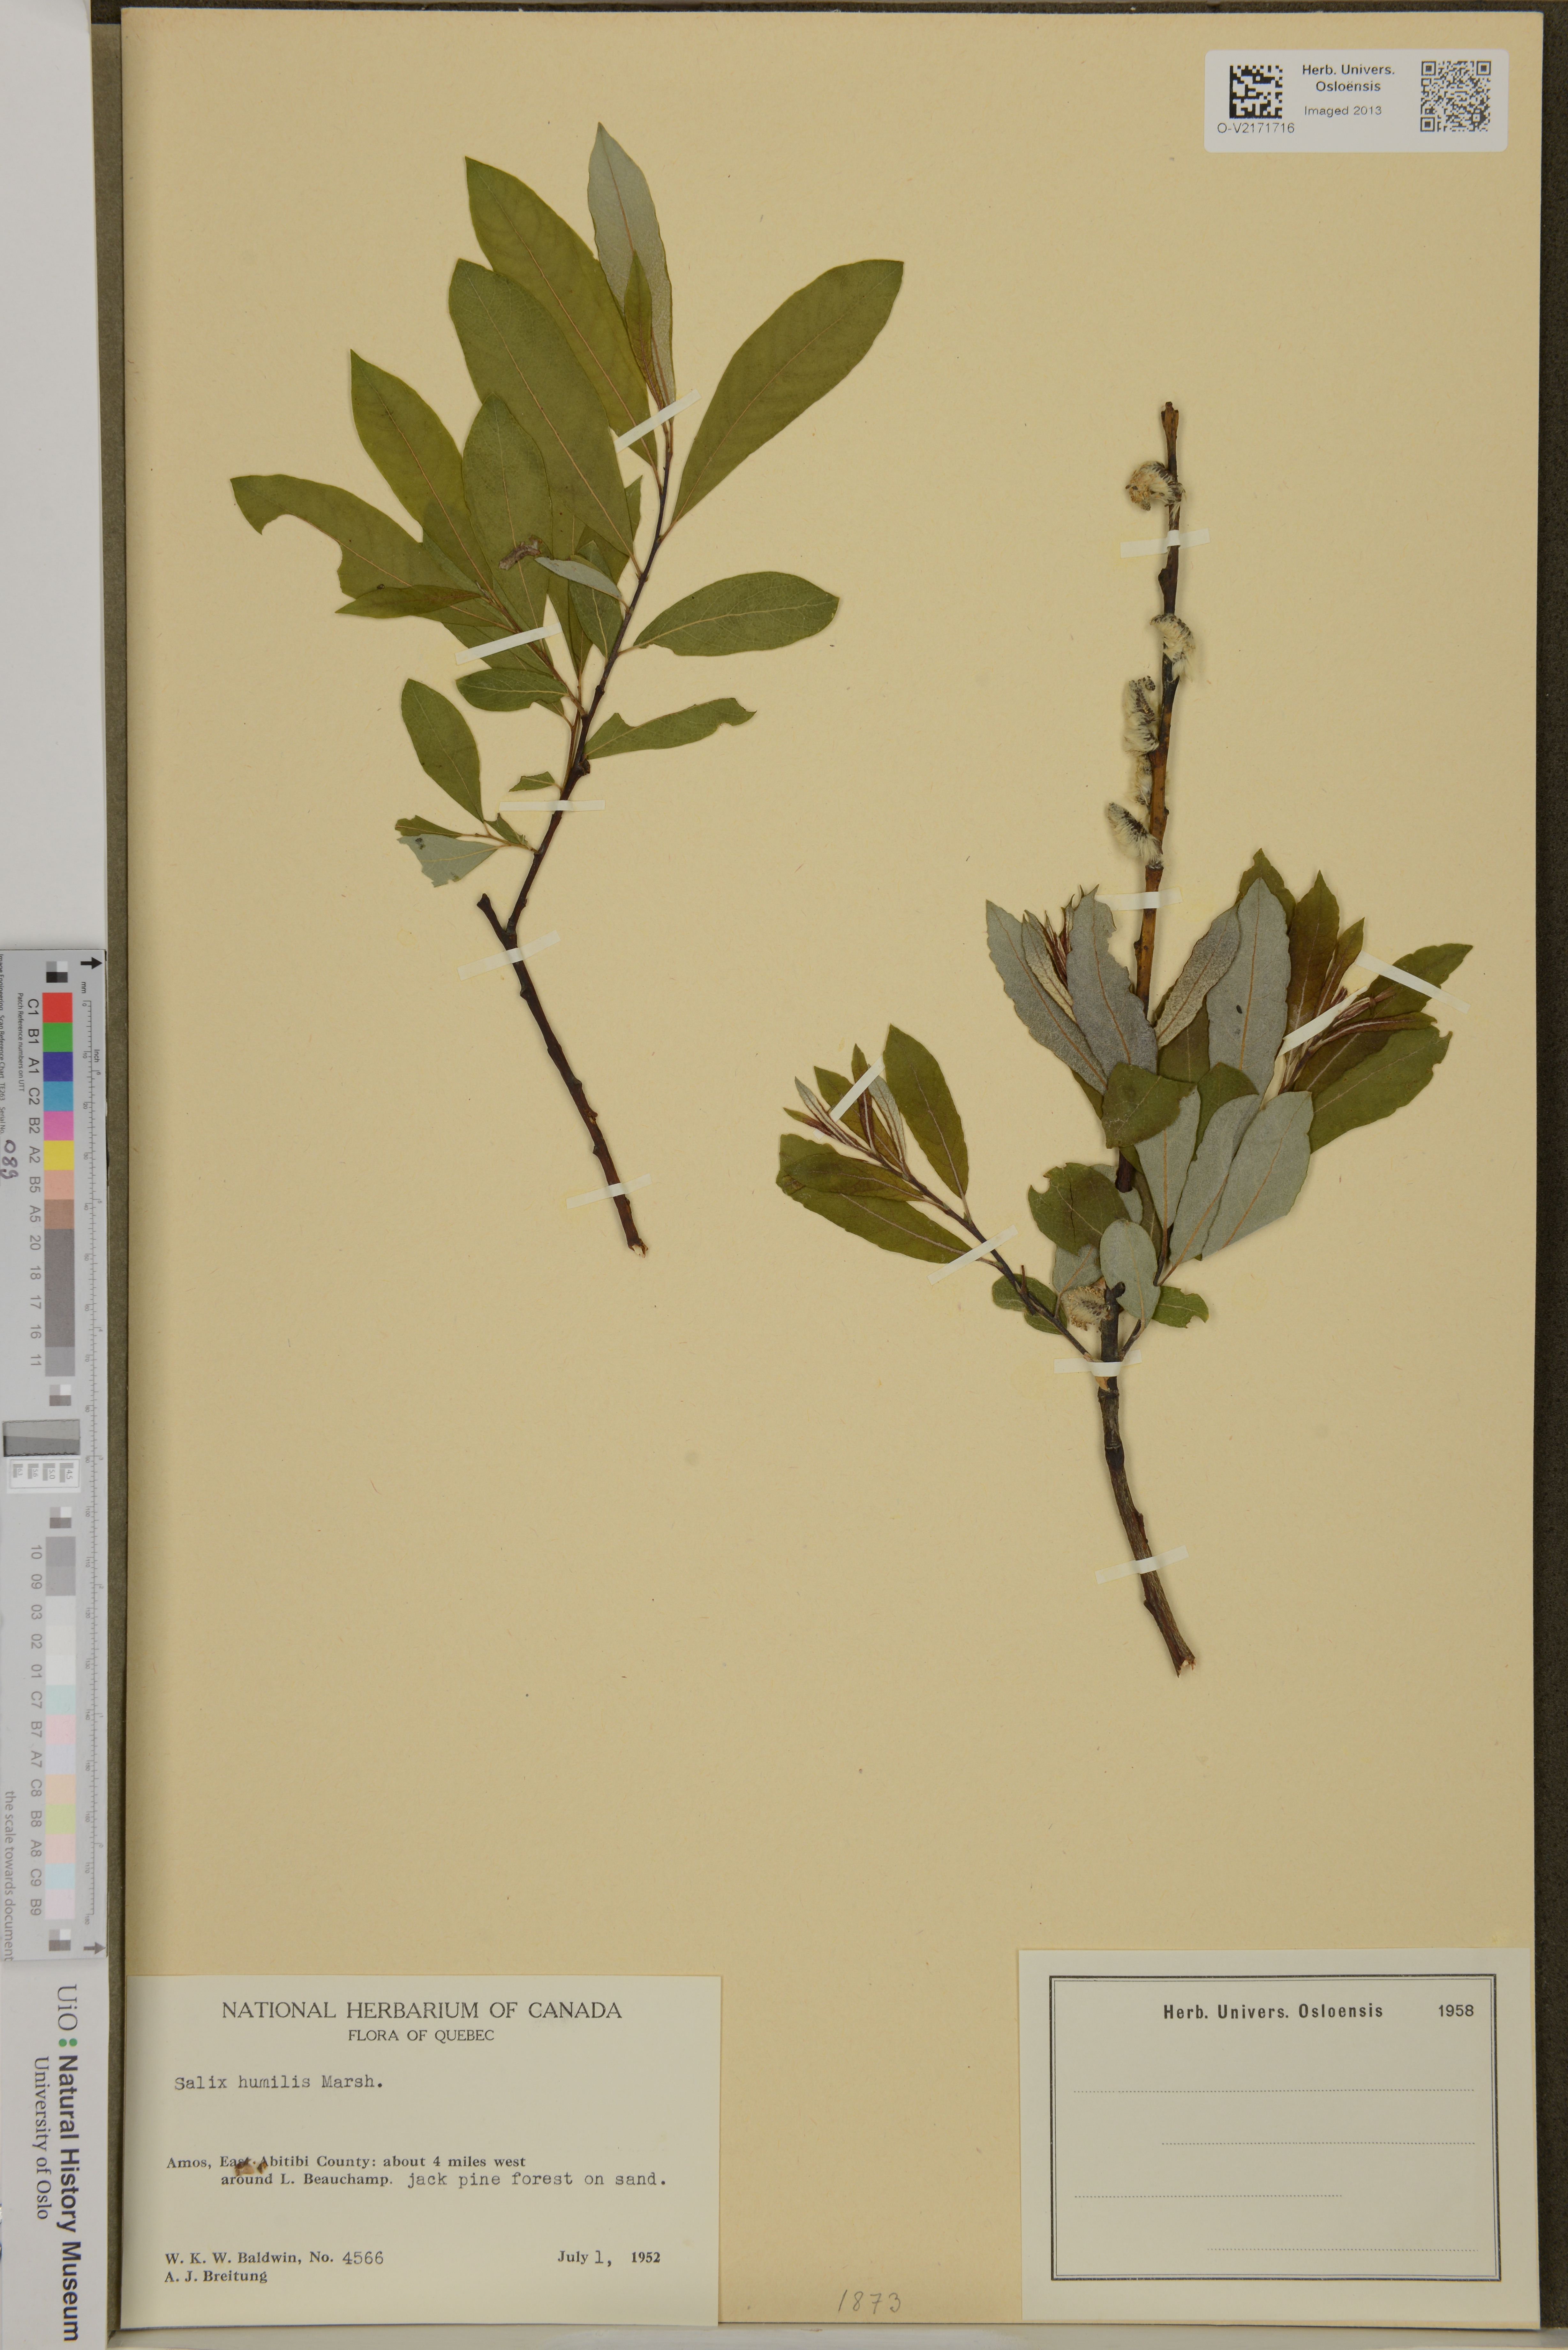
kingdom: Plantae
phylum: Tracheophyta
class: Magnoliopsida
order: Malpighiales
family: Salicaceae
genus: Salix
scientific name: Salix humilis
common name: Prairie willow
